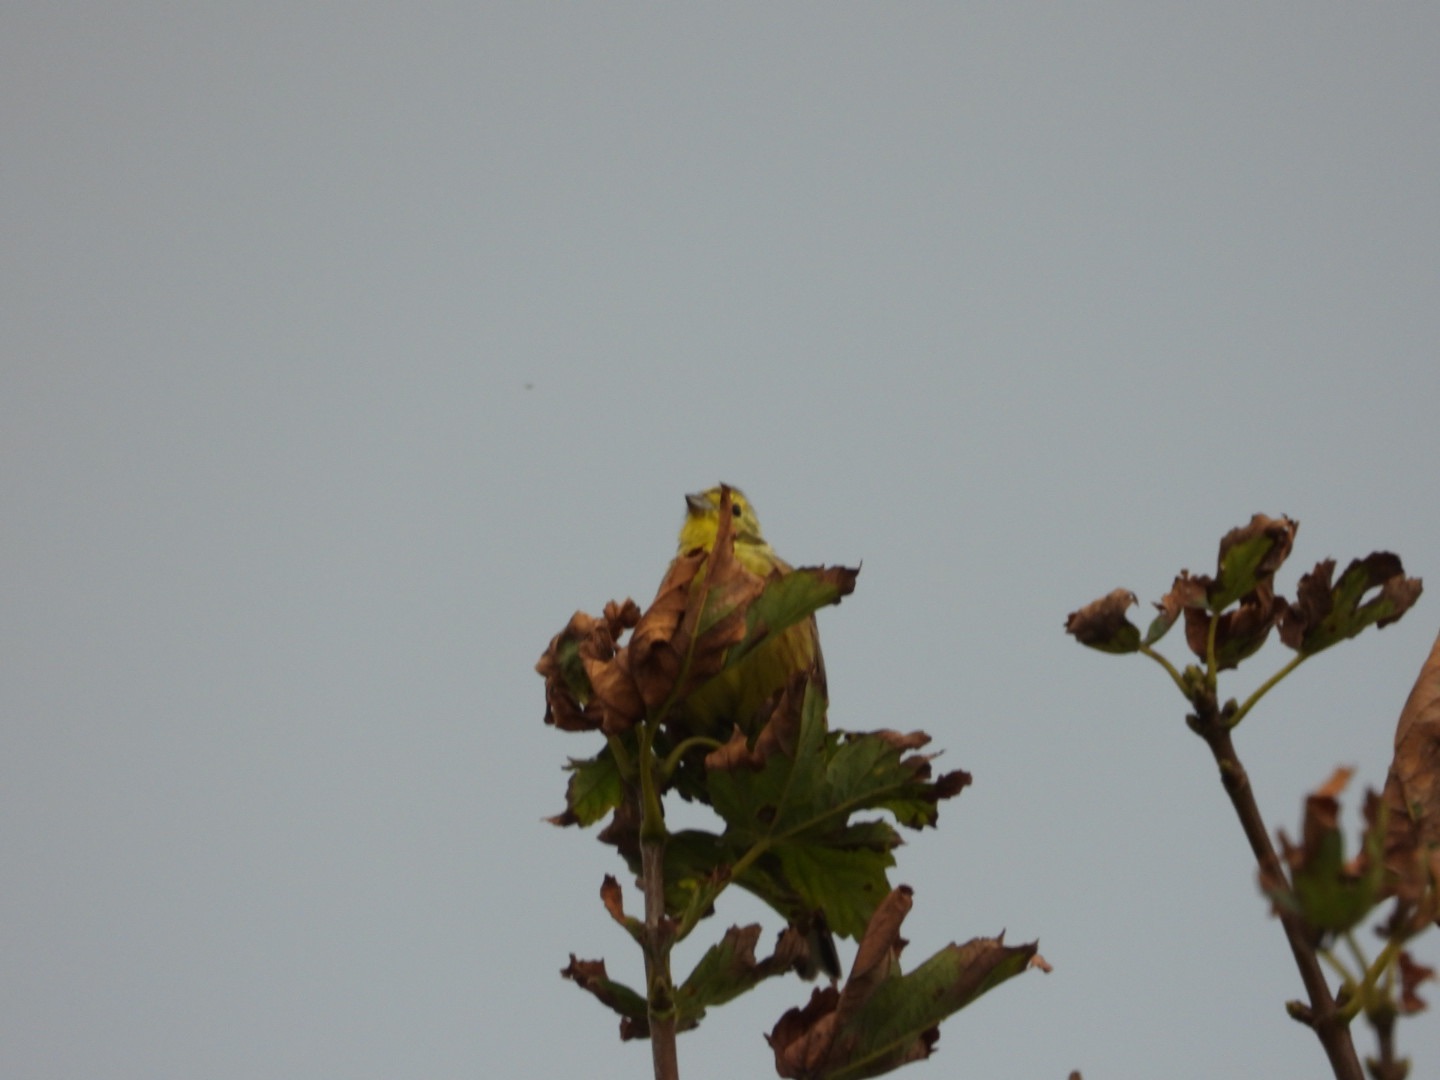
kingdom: Animalia
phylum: Chordata
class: Aves
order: Passeriformes
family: Emberizidae
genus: Emberiza
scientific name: Emberiza citrinella
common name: Gulspurv
